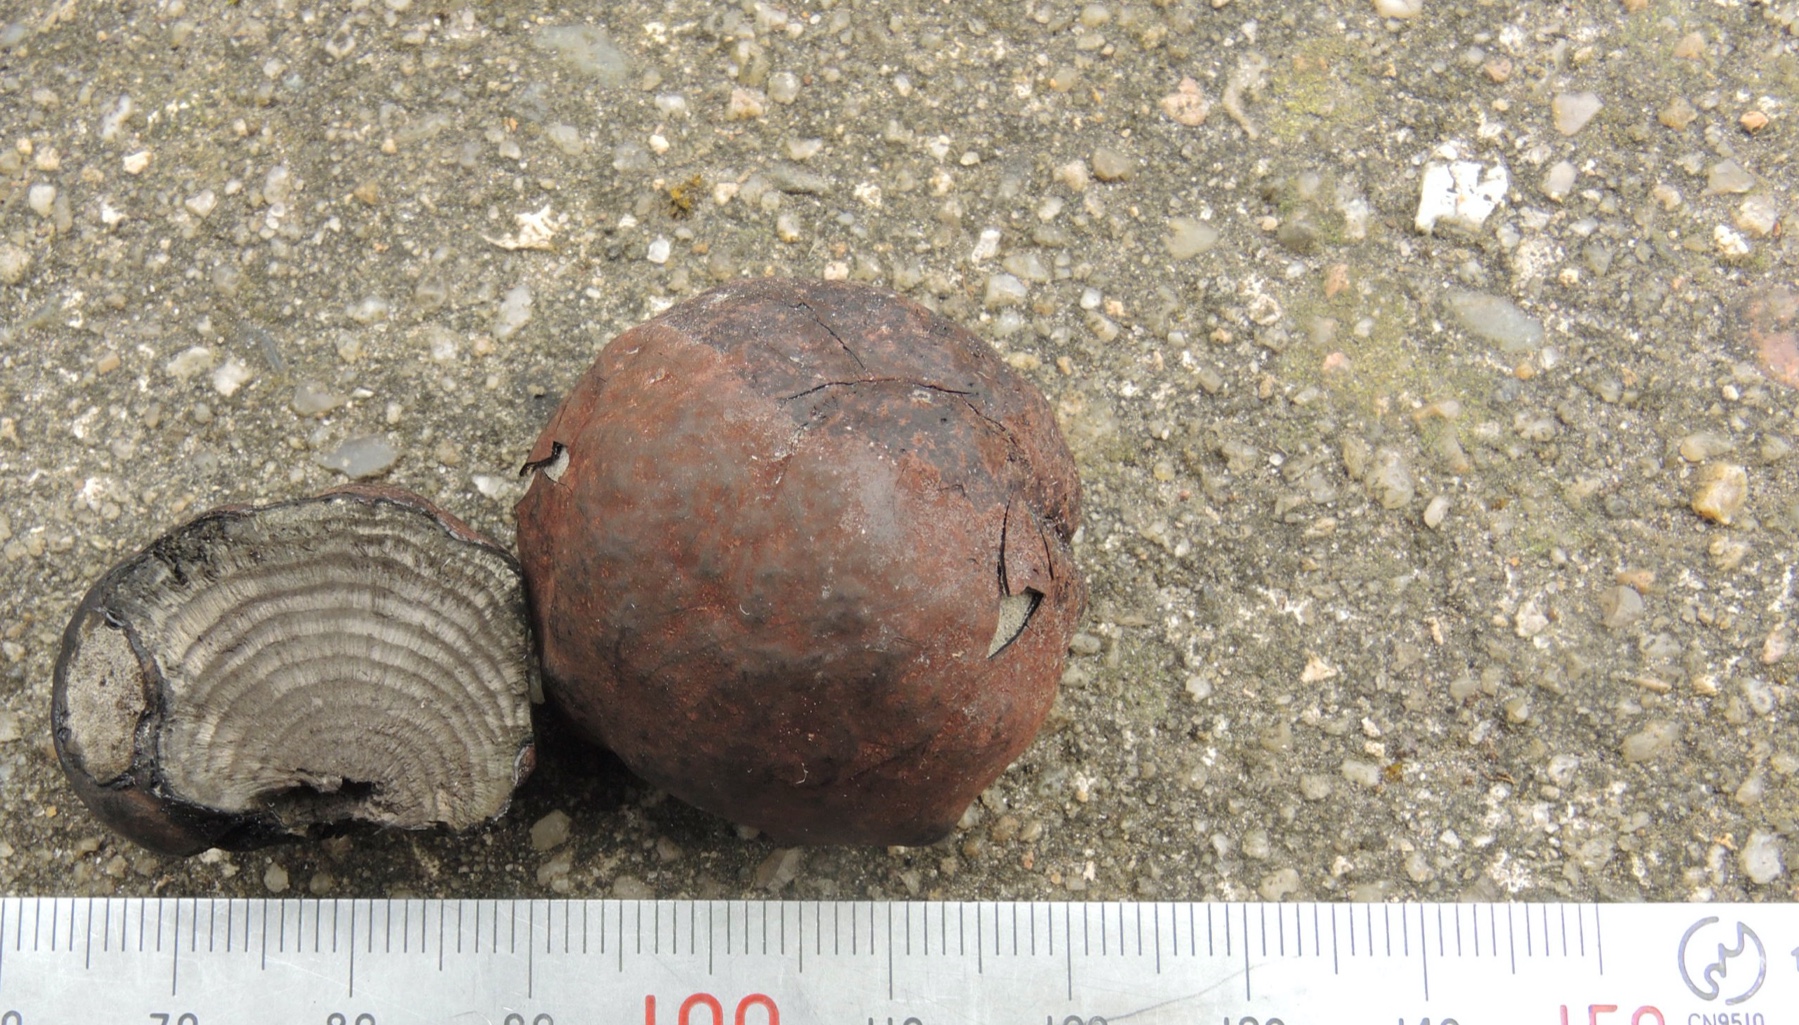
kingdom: Fungi
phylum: Ascomycota
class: Sordariomycetes
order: Xylariales
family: Hypoxylaceae
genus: Daldinia
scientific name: Daldinia concentrica
